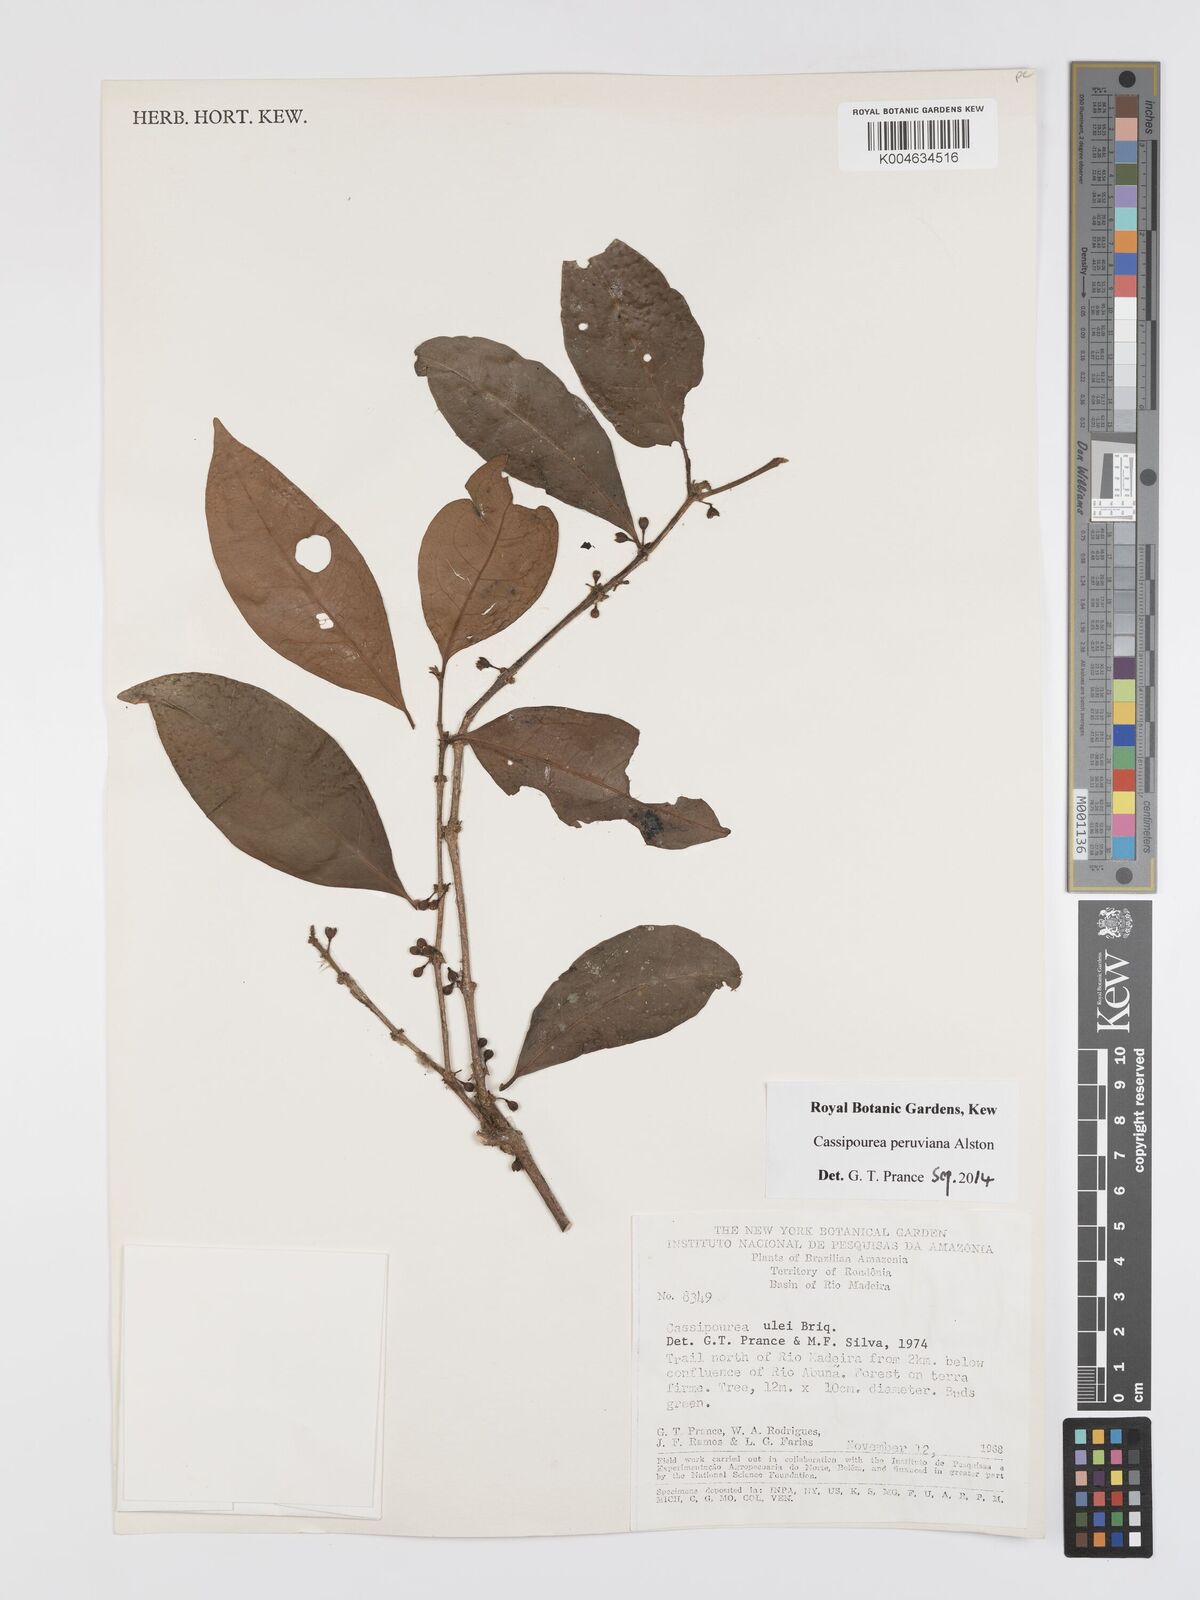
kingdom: Plantae
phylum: Tracheophyta
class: Magnoliopsida
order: Malpighiales
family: Rhizophoraceae
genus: Cassipourea
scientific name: Cassipourea peruviana
